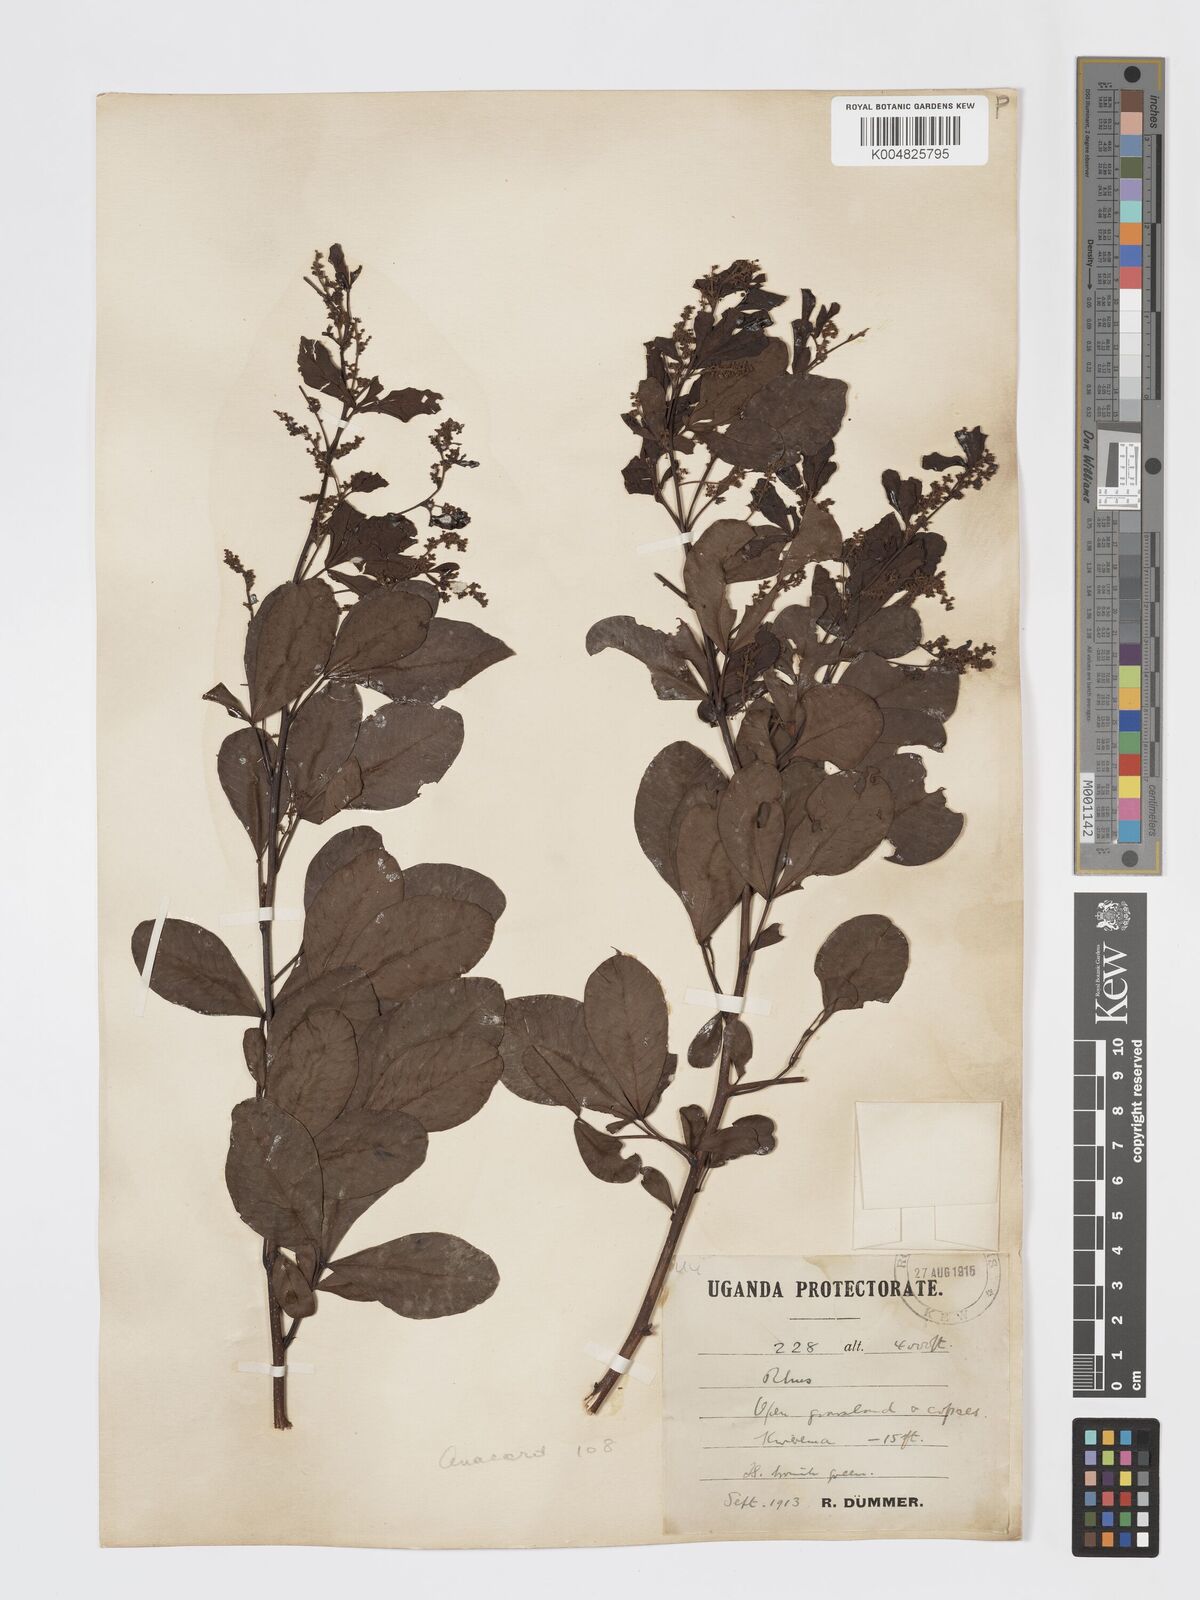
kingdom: Plantae
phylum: Tracheophyta
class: Magnoliopsida
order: Sapindales
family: Anacardiaceae
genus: Searsia
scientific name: Searsia natalensis
